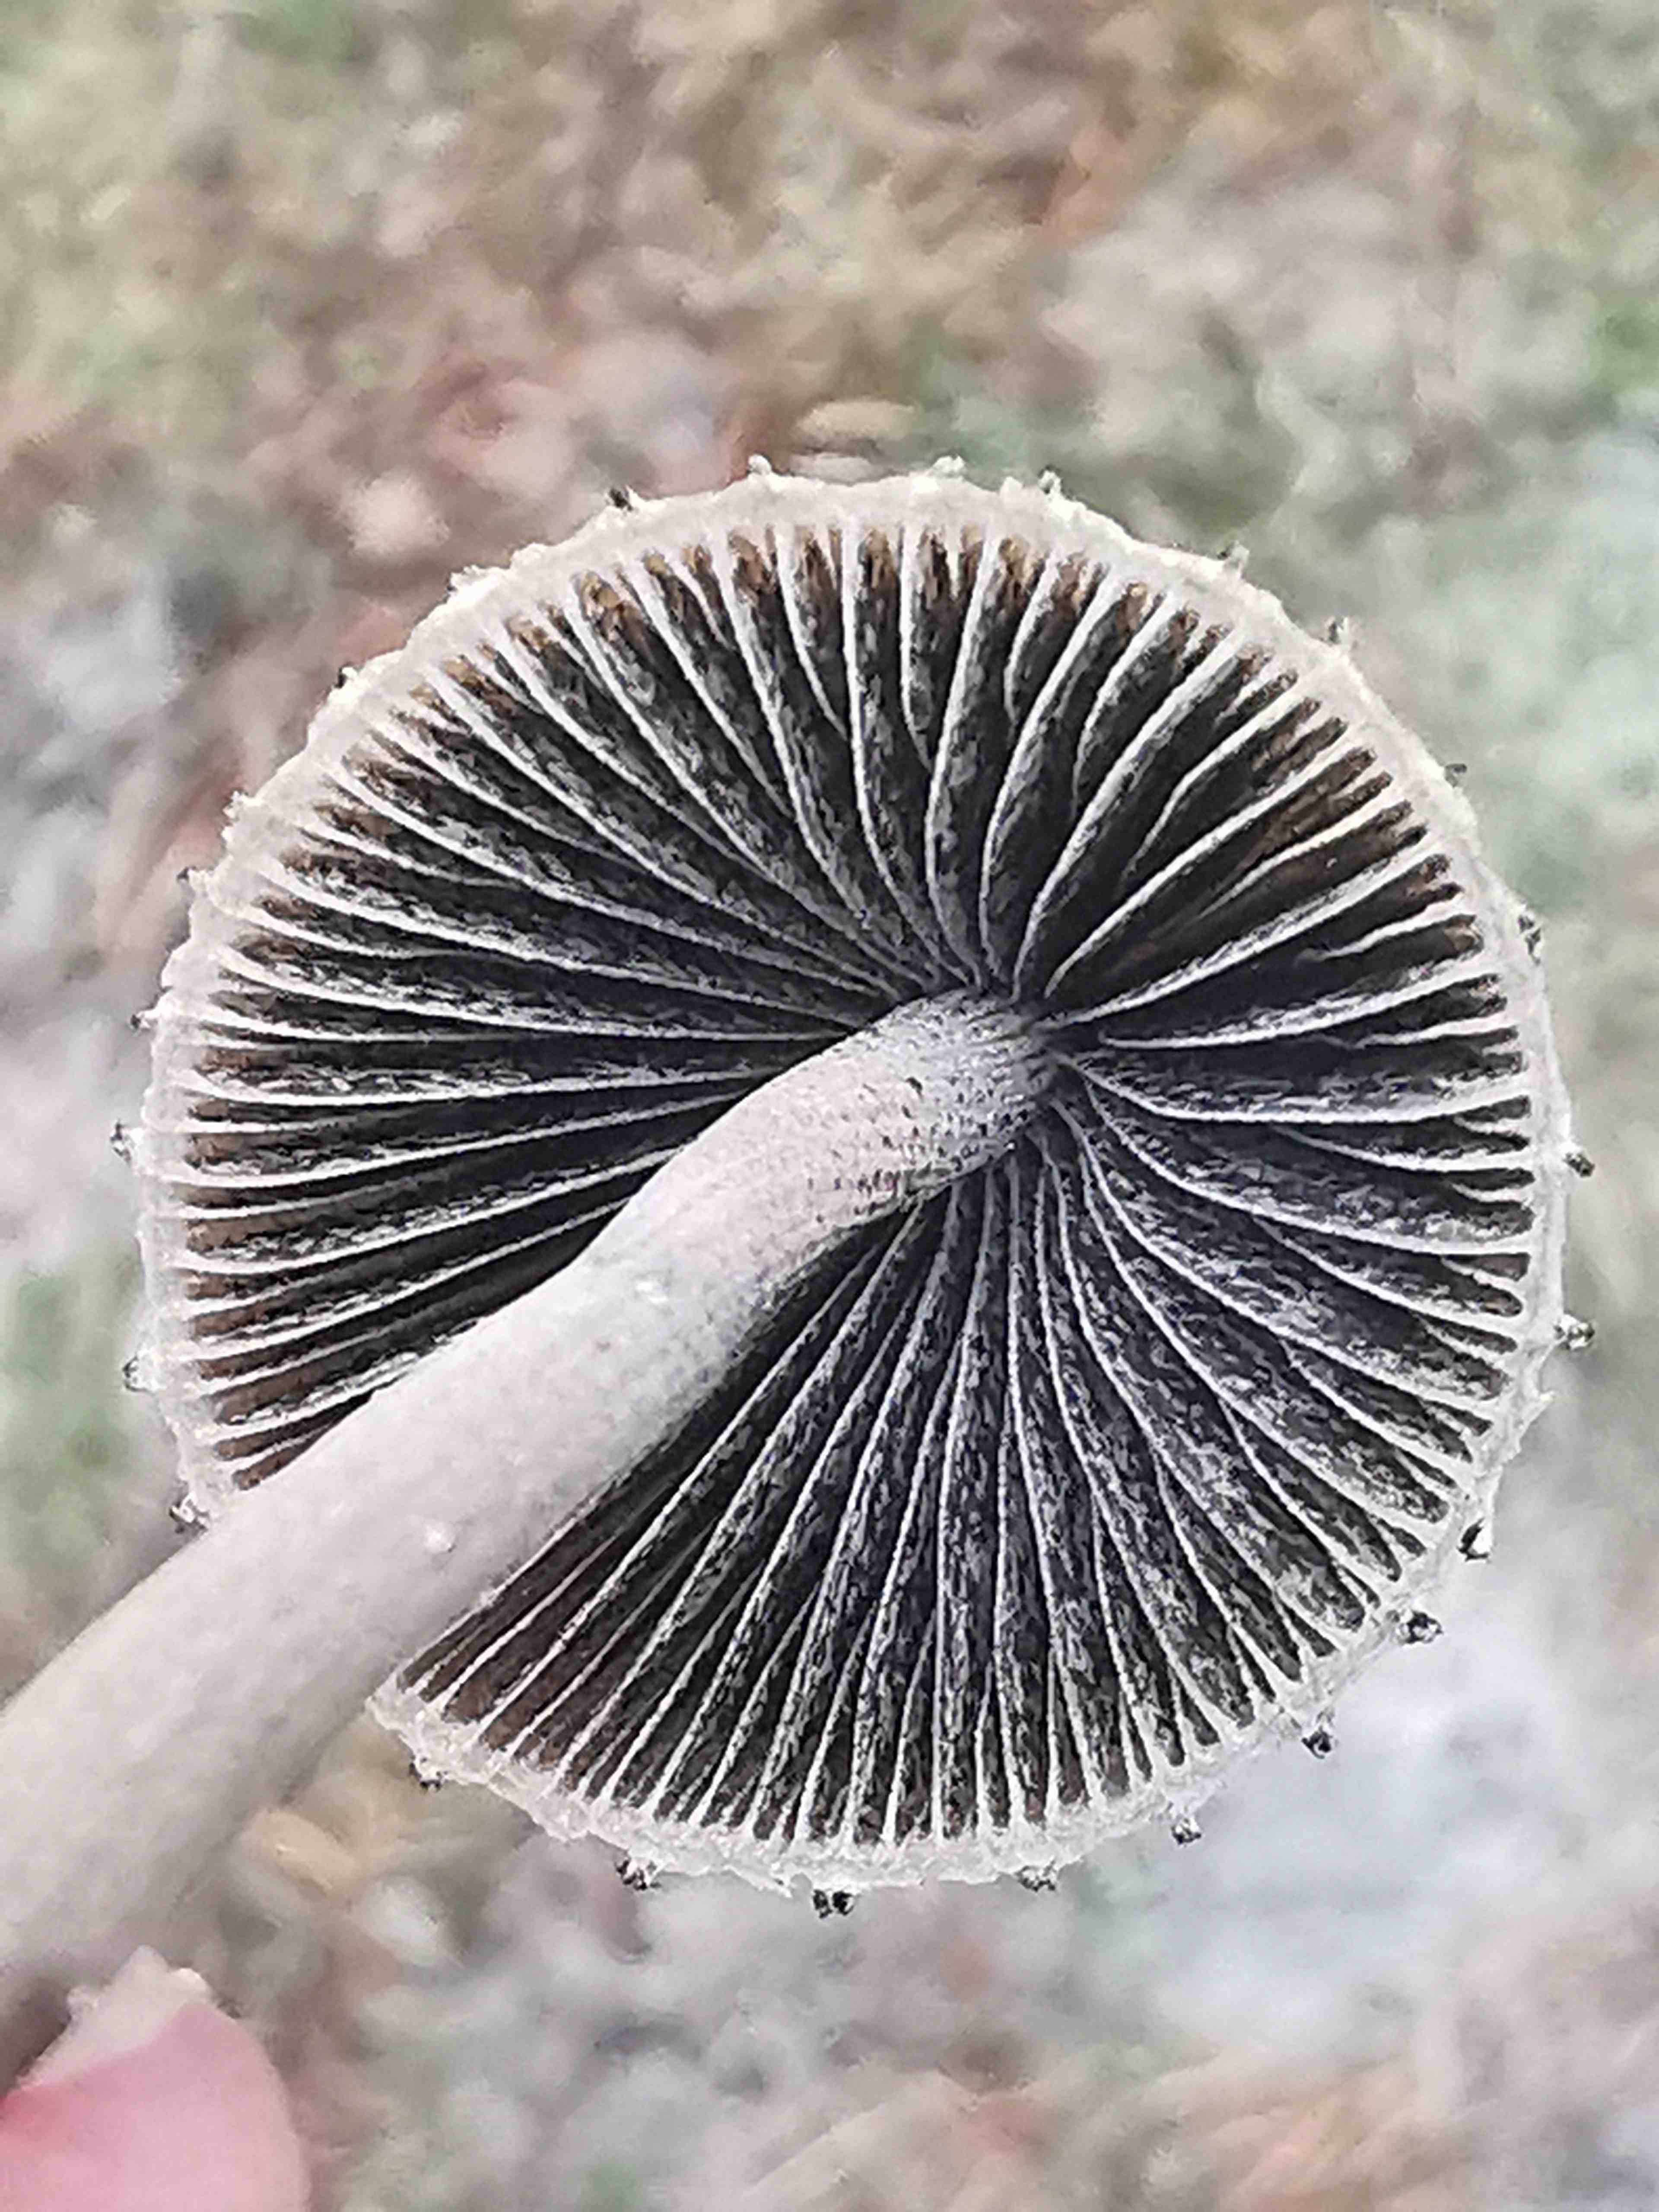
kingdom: Fungi
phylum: Basidiomycota
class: Agaricomycetes
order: Agaricales
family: Bolbitiaceae
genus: Panaeolus
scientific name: Panaeolus papilionaceus
